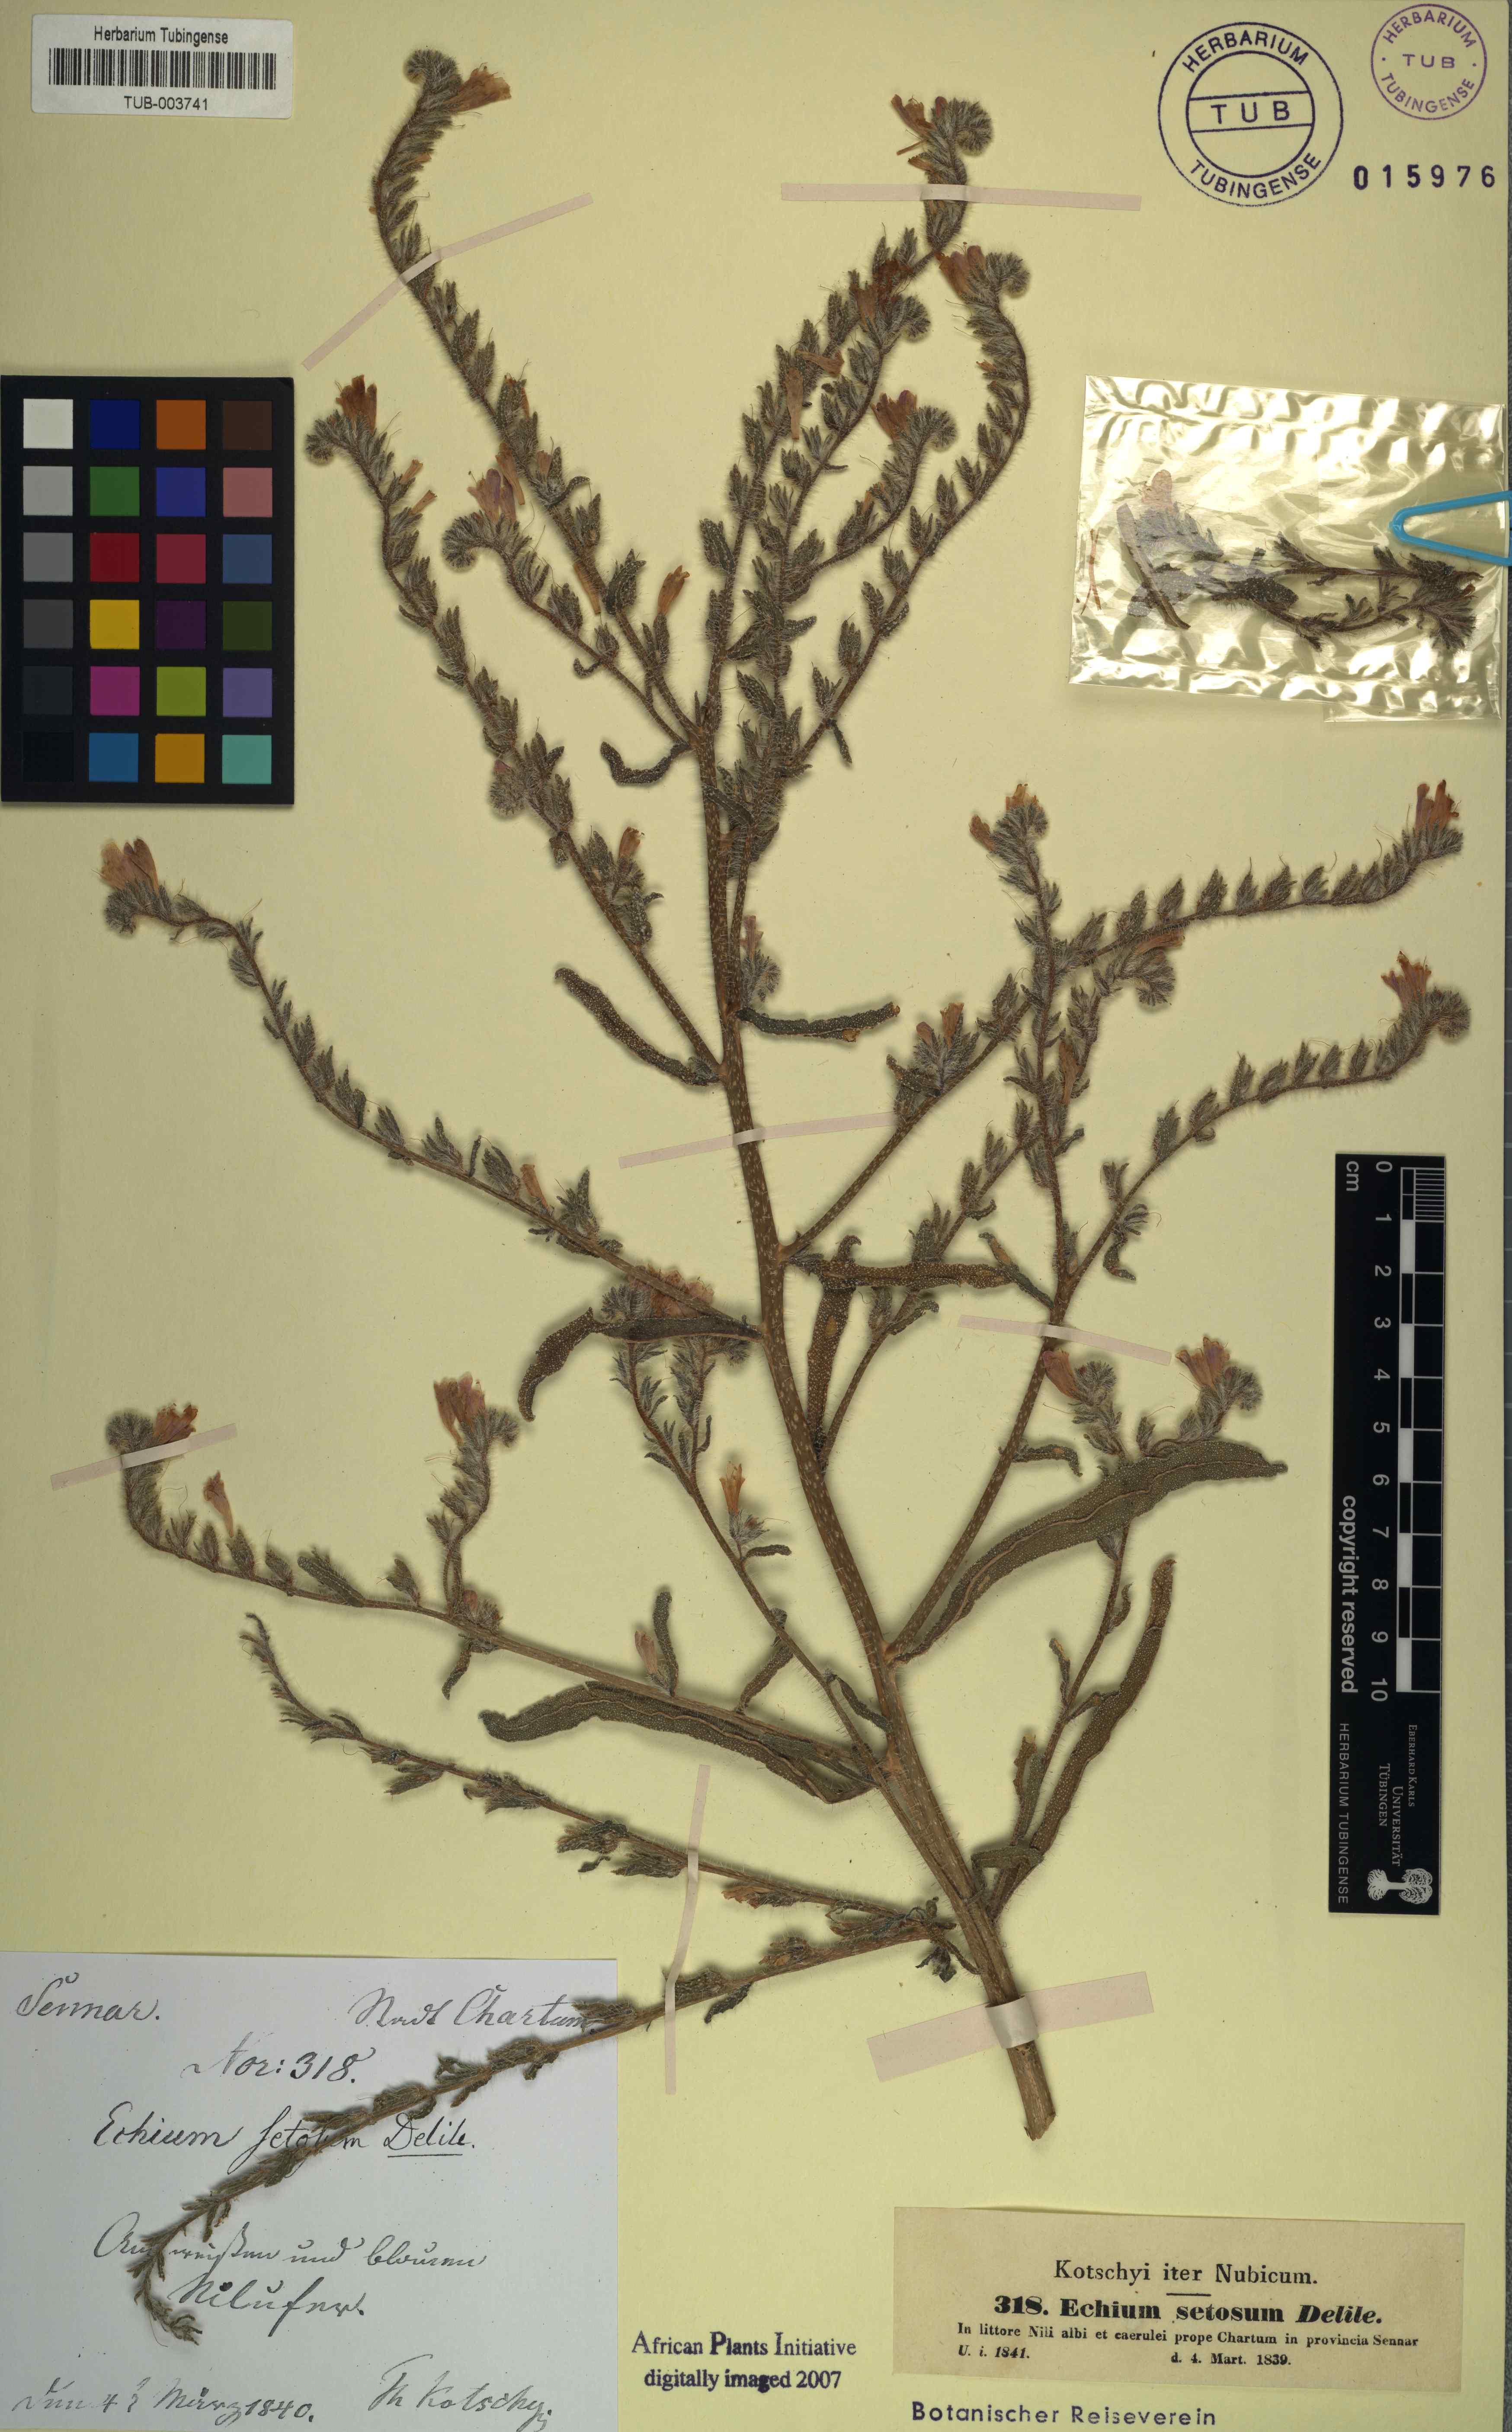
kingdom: Plantae
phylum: Tracheophyta
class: Magnoliopsida
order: Boraginales
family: Boraginaceae
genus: Echium
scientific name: Echium creticum
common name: Cretan viper's bugloss
